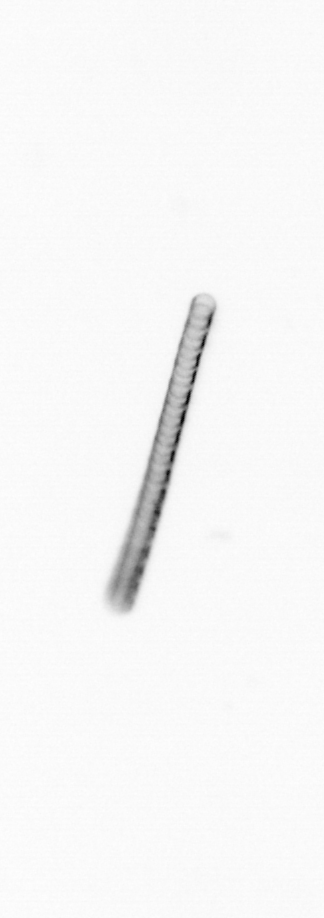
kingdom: Chromista
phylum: Ochrophyta
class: Bacillariophyceae
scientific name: Bacillariophyceae
